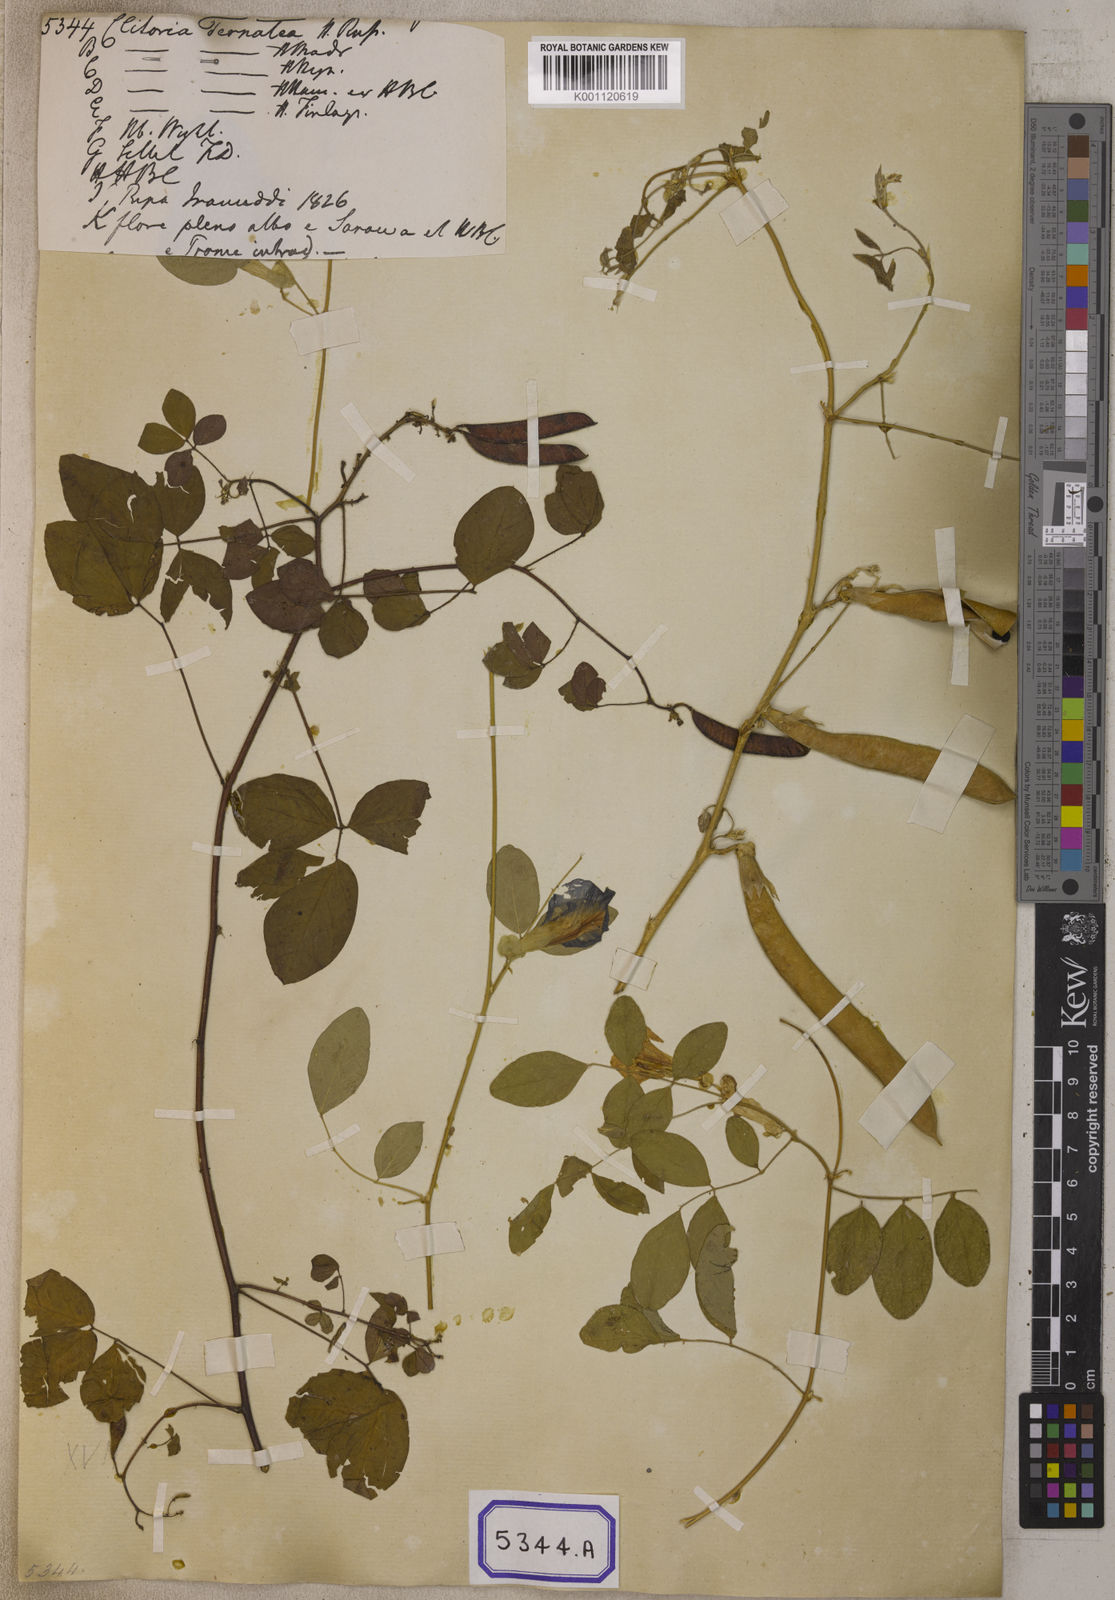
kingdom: Plantae
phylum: Tracheophyta
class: Magnoliopsida
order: Fabales
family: Fabaceae
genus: Clitoria
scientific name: Clitoria ternatea
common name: Asian pigeonwings
